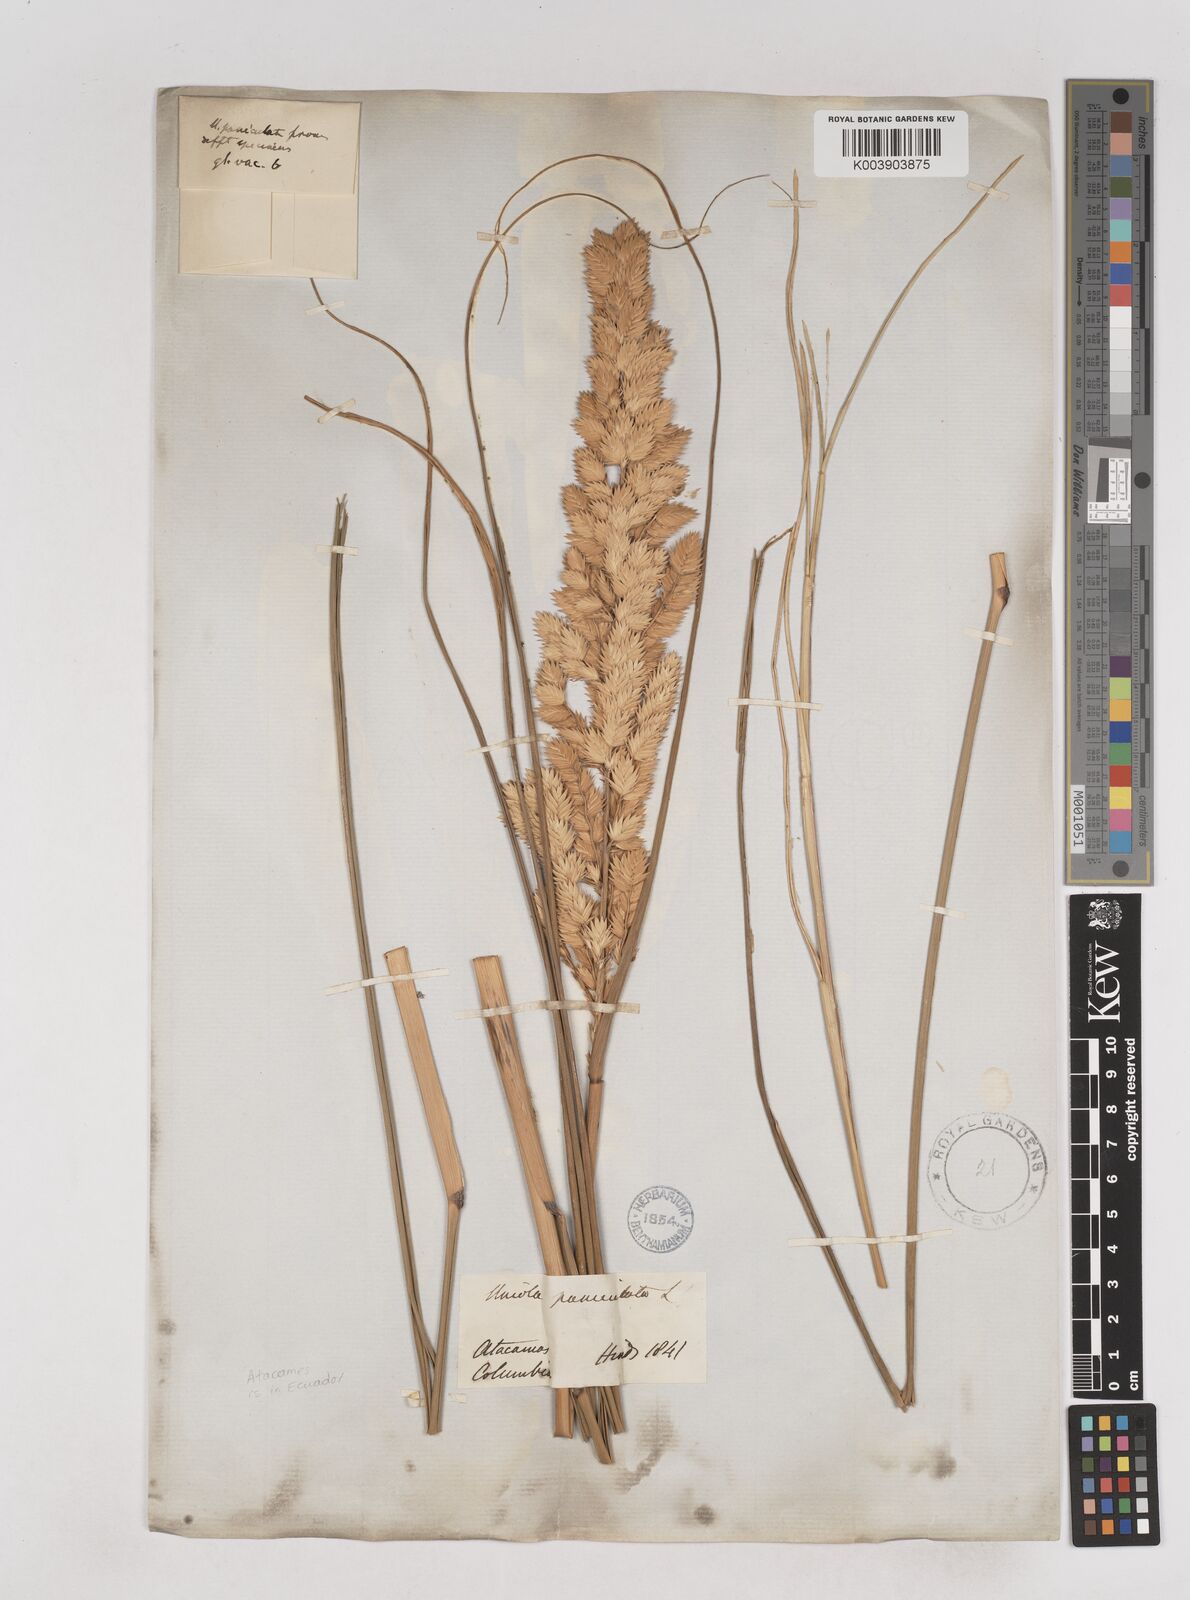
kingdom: Plantae
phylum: Tracheophyta
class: Liliopsida
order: Poales
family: Poaceae
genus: Uniola
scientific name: Uniola pittieri
